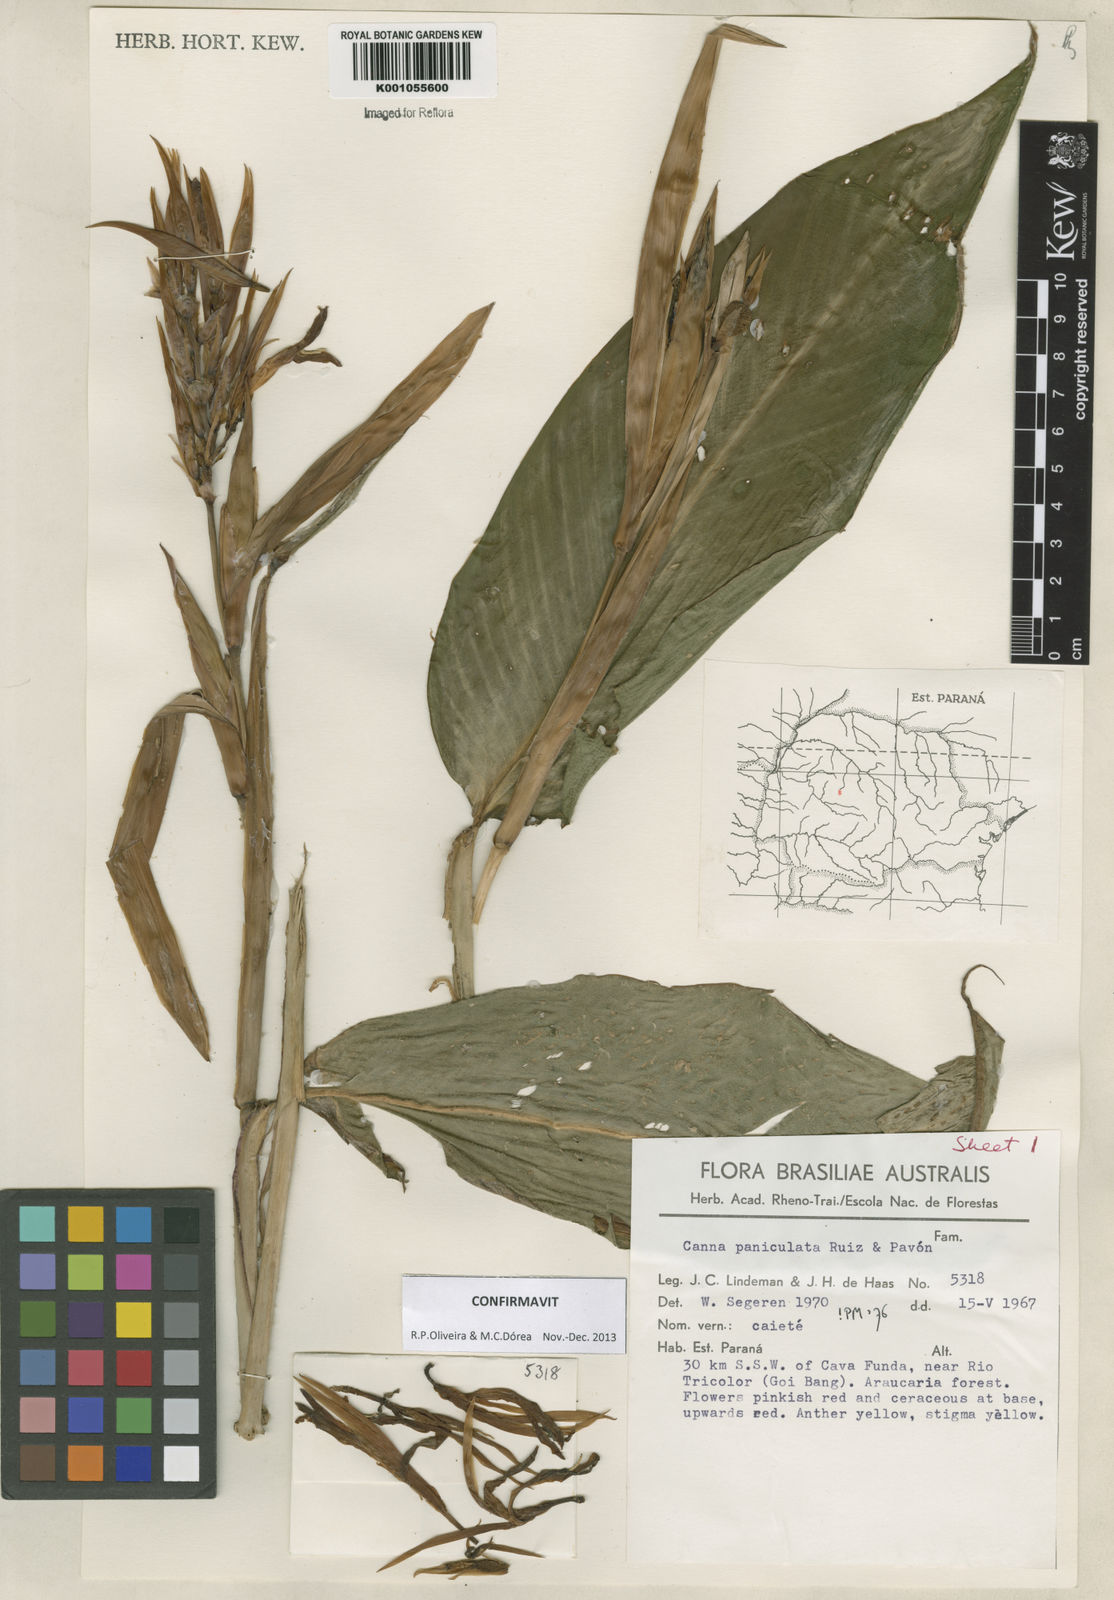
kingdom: Plantae
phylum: Tracheophyta
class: Liliopsida
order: Zingiberales
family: Cannaceae
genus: Canna
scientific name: Canna paniculata
